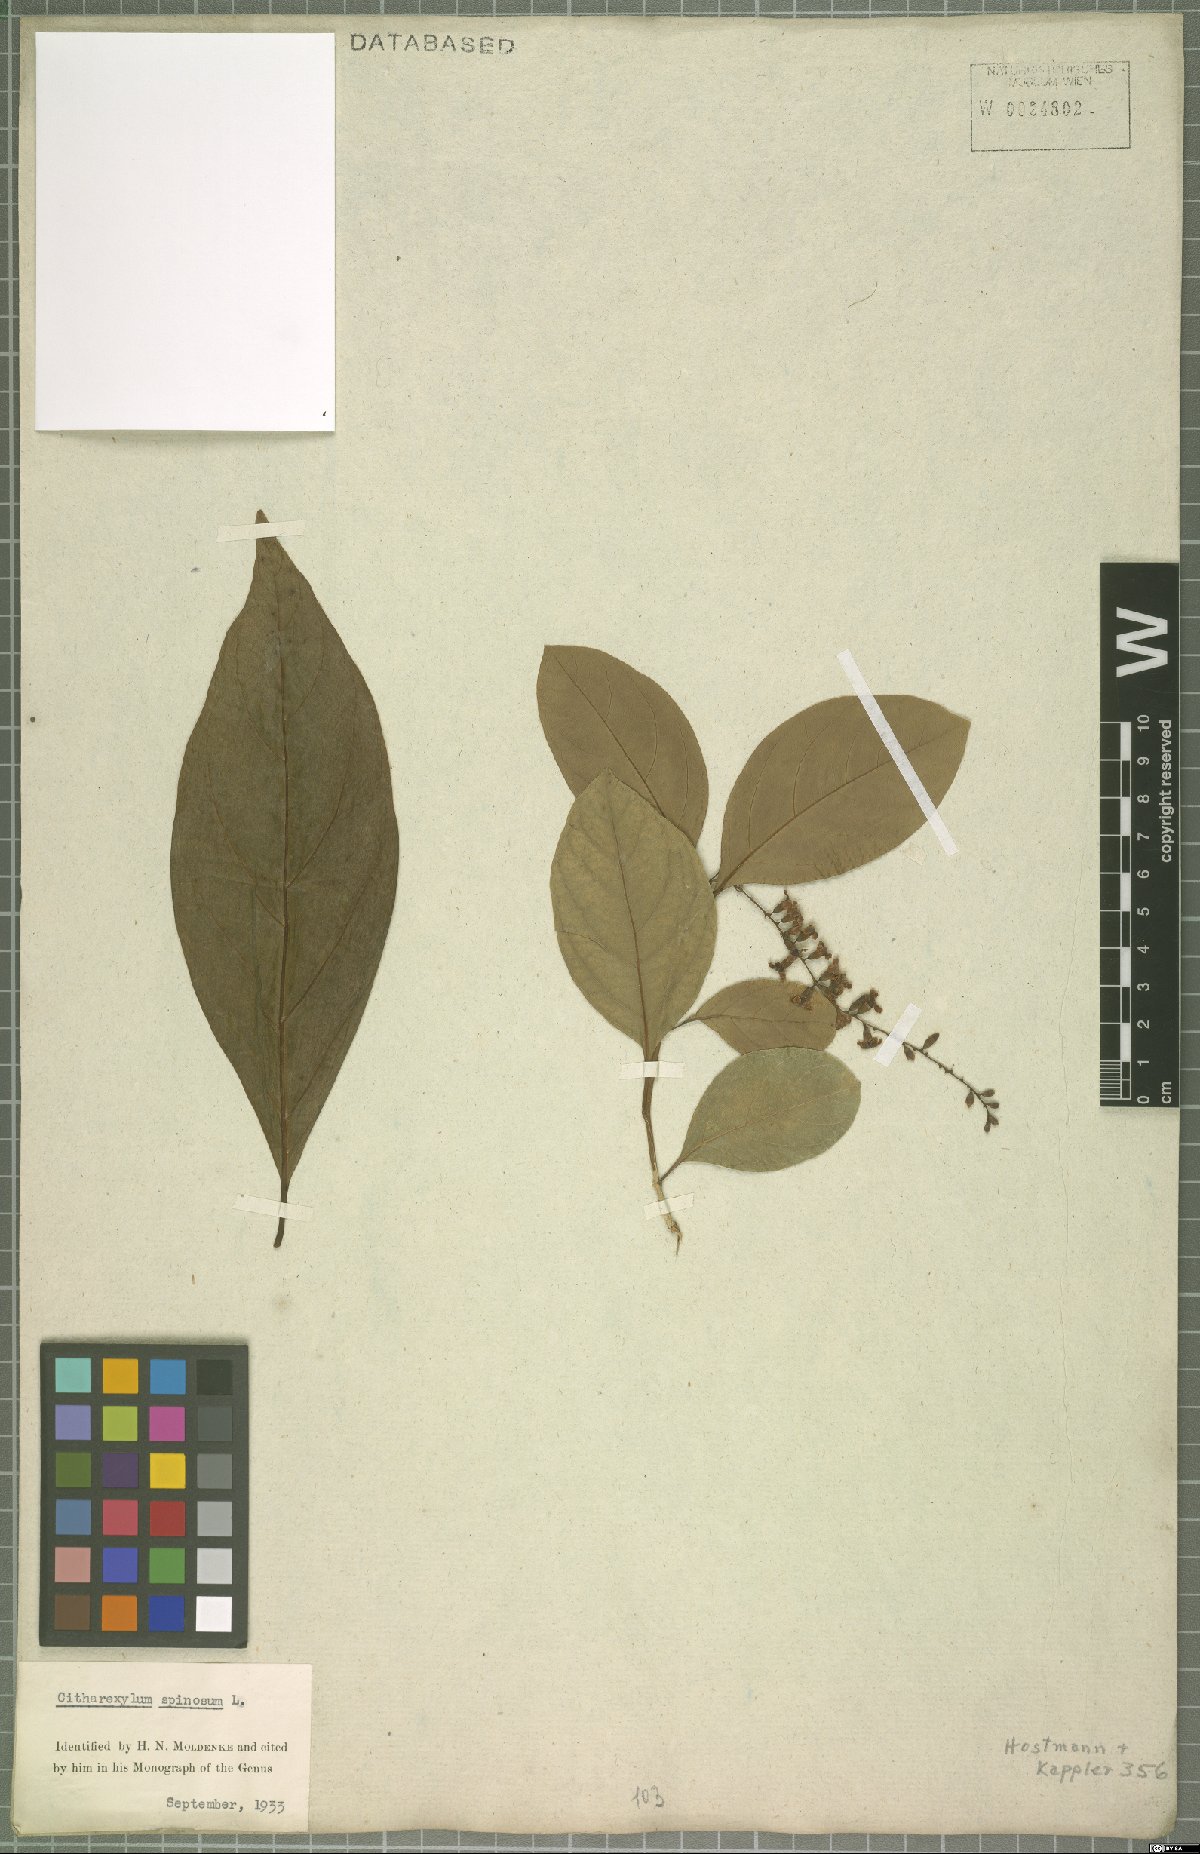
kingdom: Plantae
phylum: Tracheophyta
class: Magnoliopsida
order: Lamiales
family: Verbenaceae
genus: Citharexylum
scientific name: Citharexylum spinosum
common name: Fiddlewood
